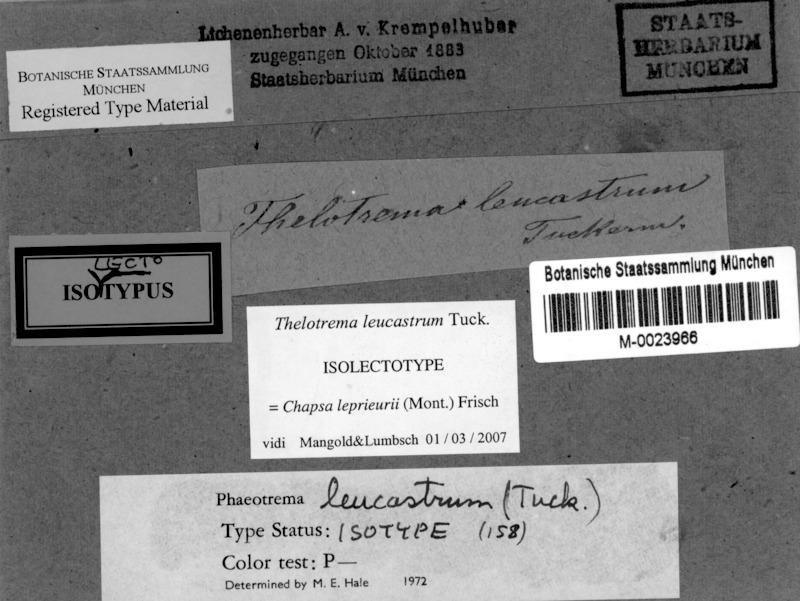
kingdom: Fungi
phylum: Ascomycota
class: Lecanoromycetes
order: Ostropales
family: Graphidaceae
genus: Nitidochapsa
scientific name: Nitidochapsa leprieurii
